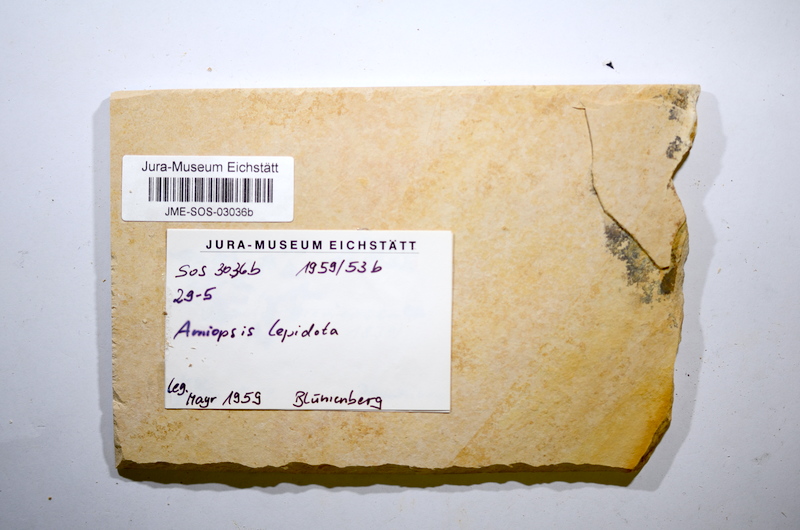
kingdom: Animalia
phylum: Chordata
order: Amiiformes
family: Amiidae
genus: Amiopsis
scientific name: Amiopsis lepidota
